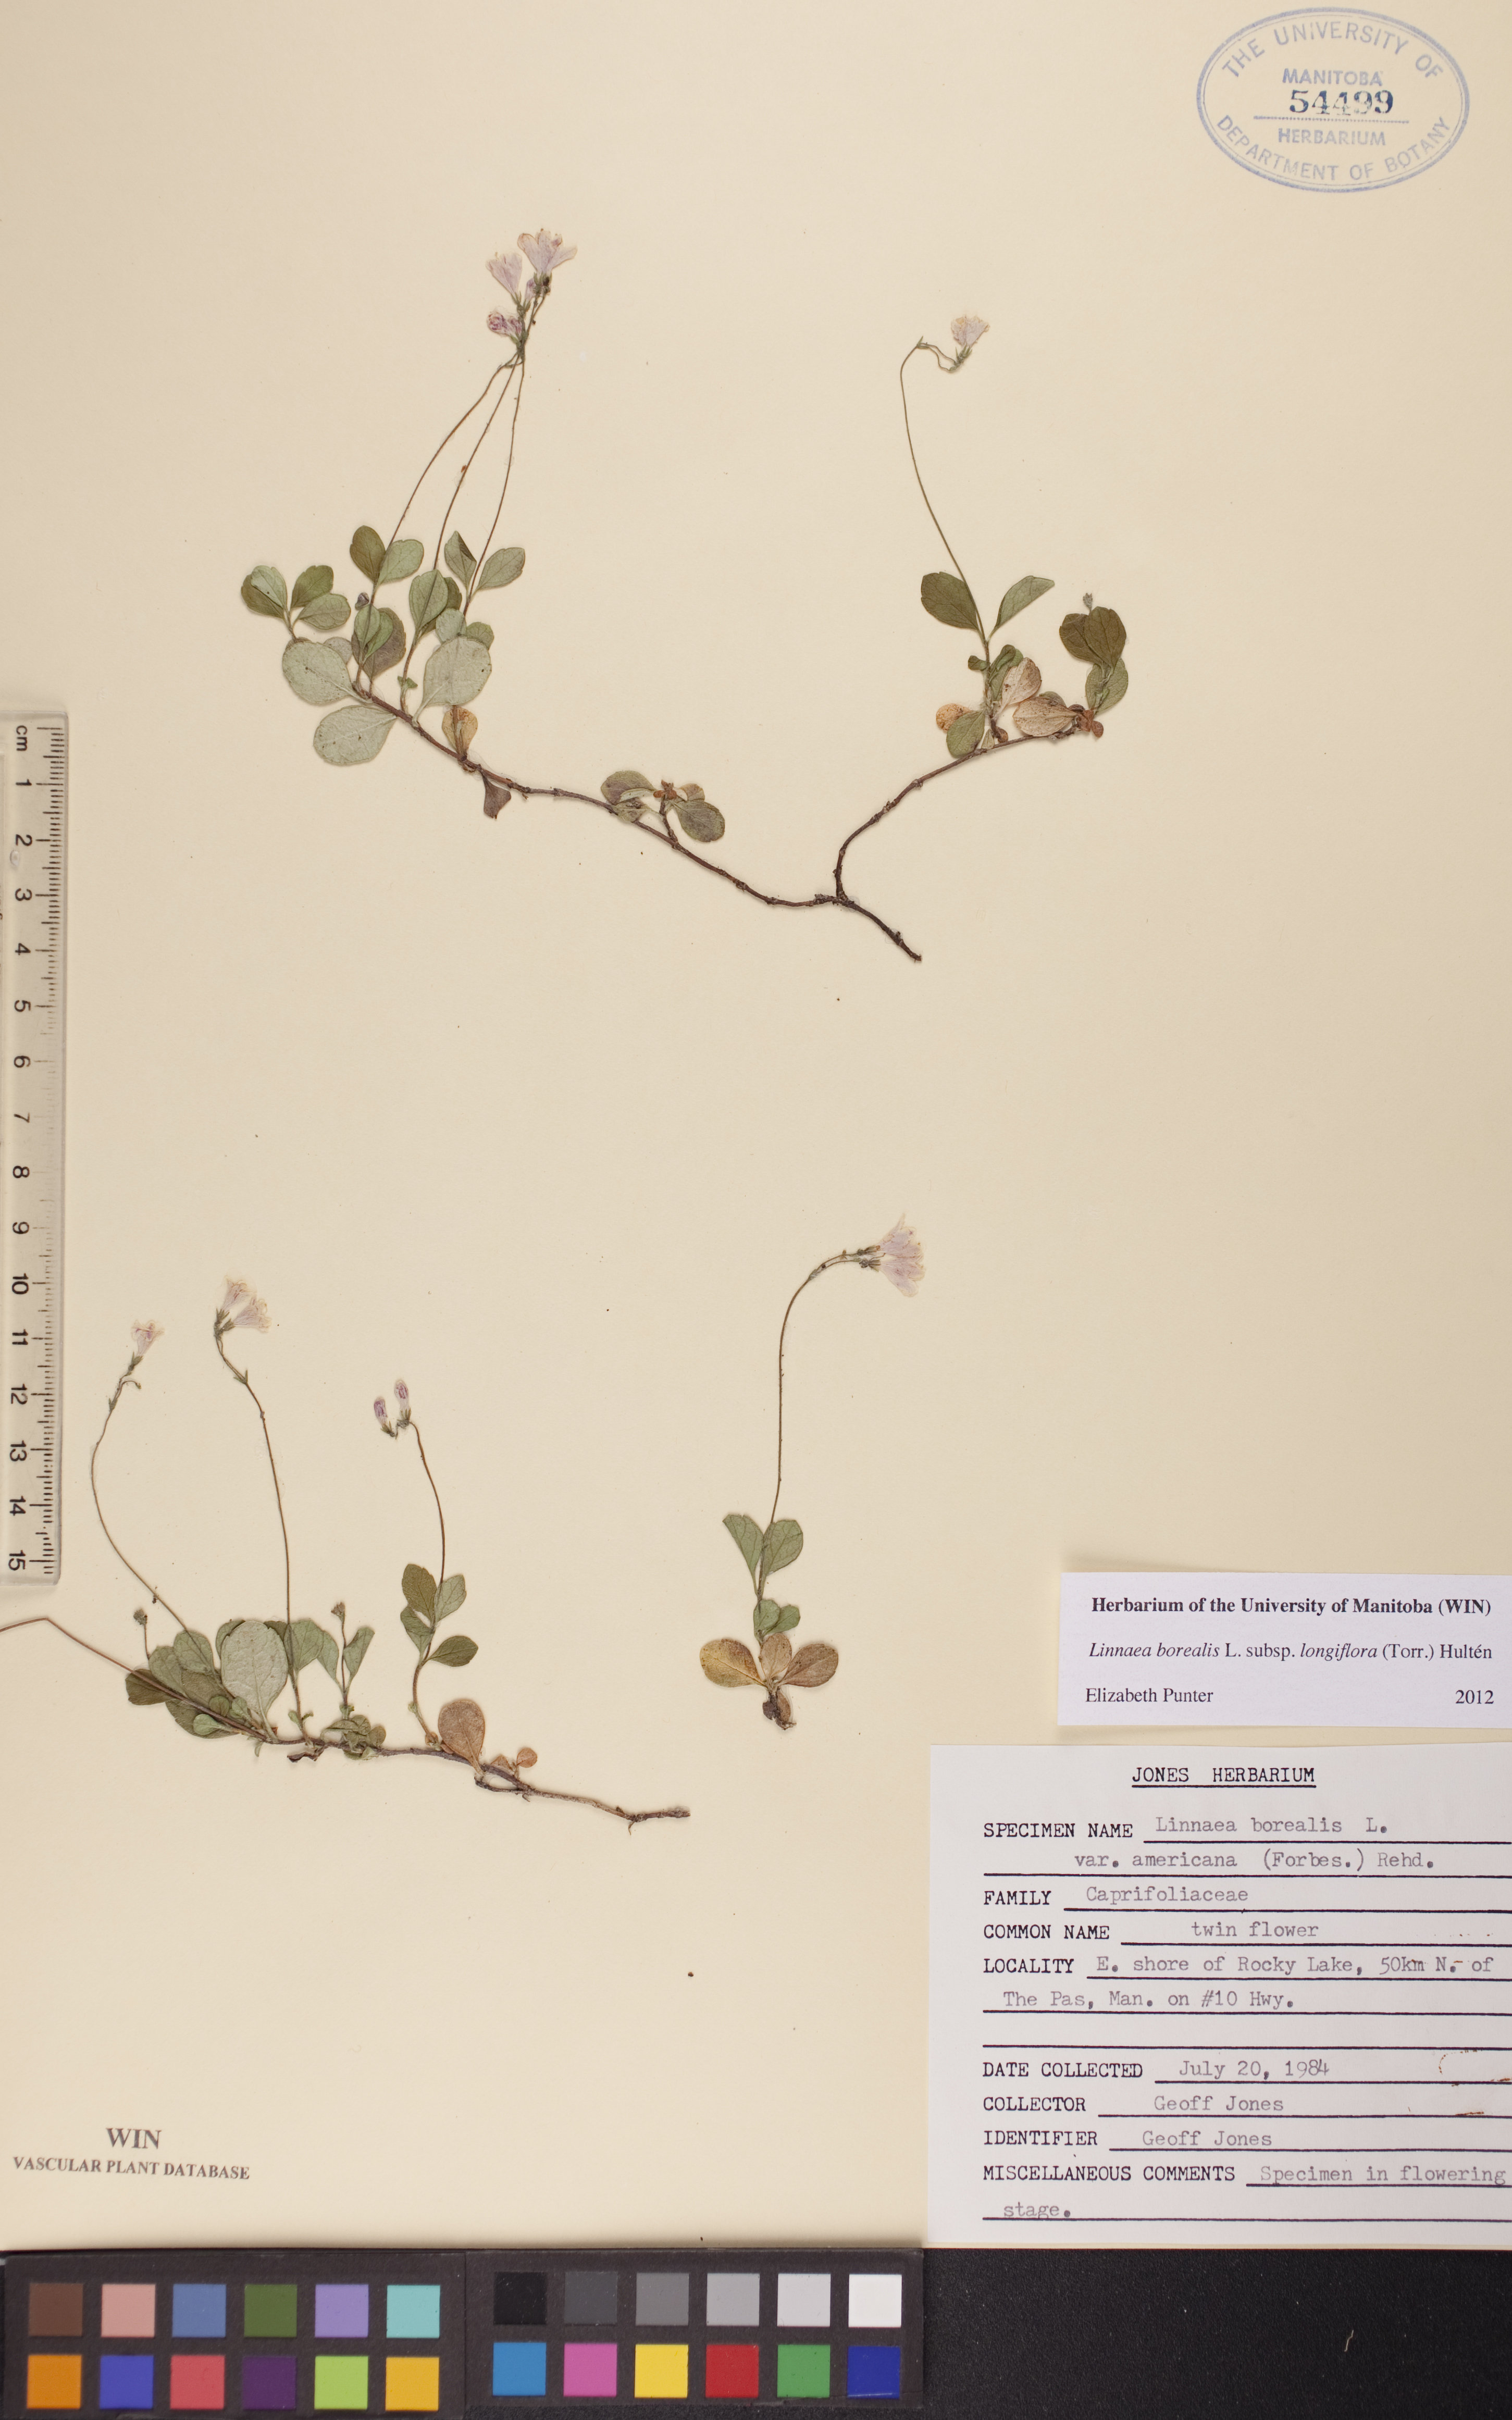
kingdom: Plantae
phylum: Tracheophyta
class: Magnoliopsida
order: Dipsacales
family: Caprifoliaceae
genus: Linnaea
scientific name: Linnaea borealis
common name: Twinflower
